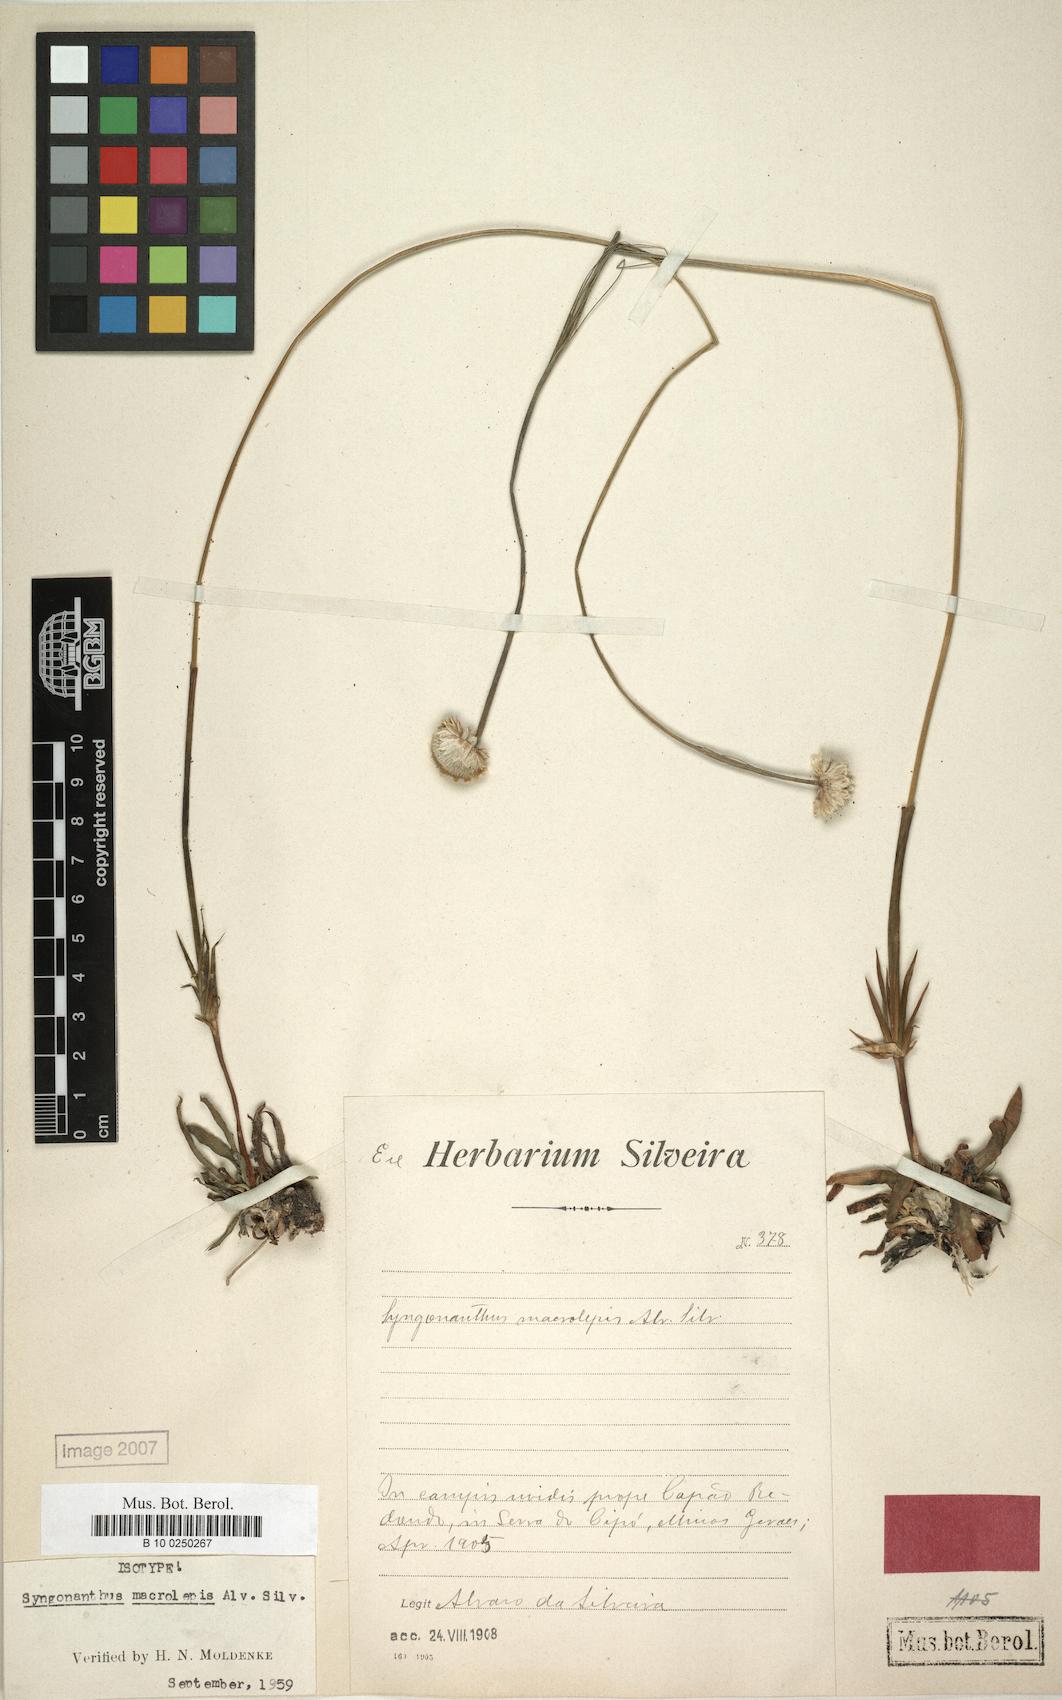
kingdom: Plantae
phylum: Tracheophyta
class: Liliopsida
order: Poales
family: Eriocaulaceae
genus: Syngonanthus
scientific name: Syngonanthus macrolepis
